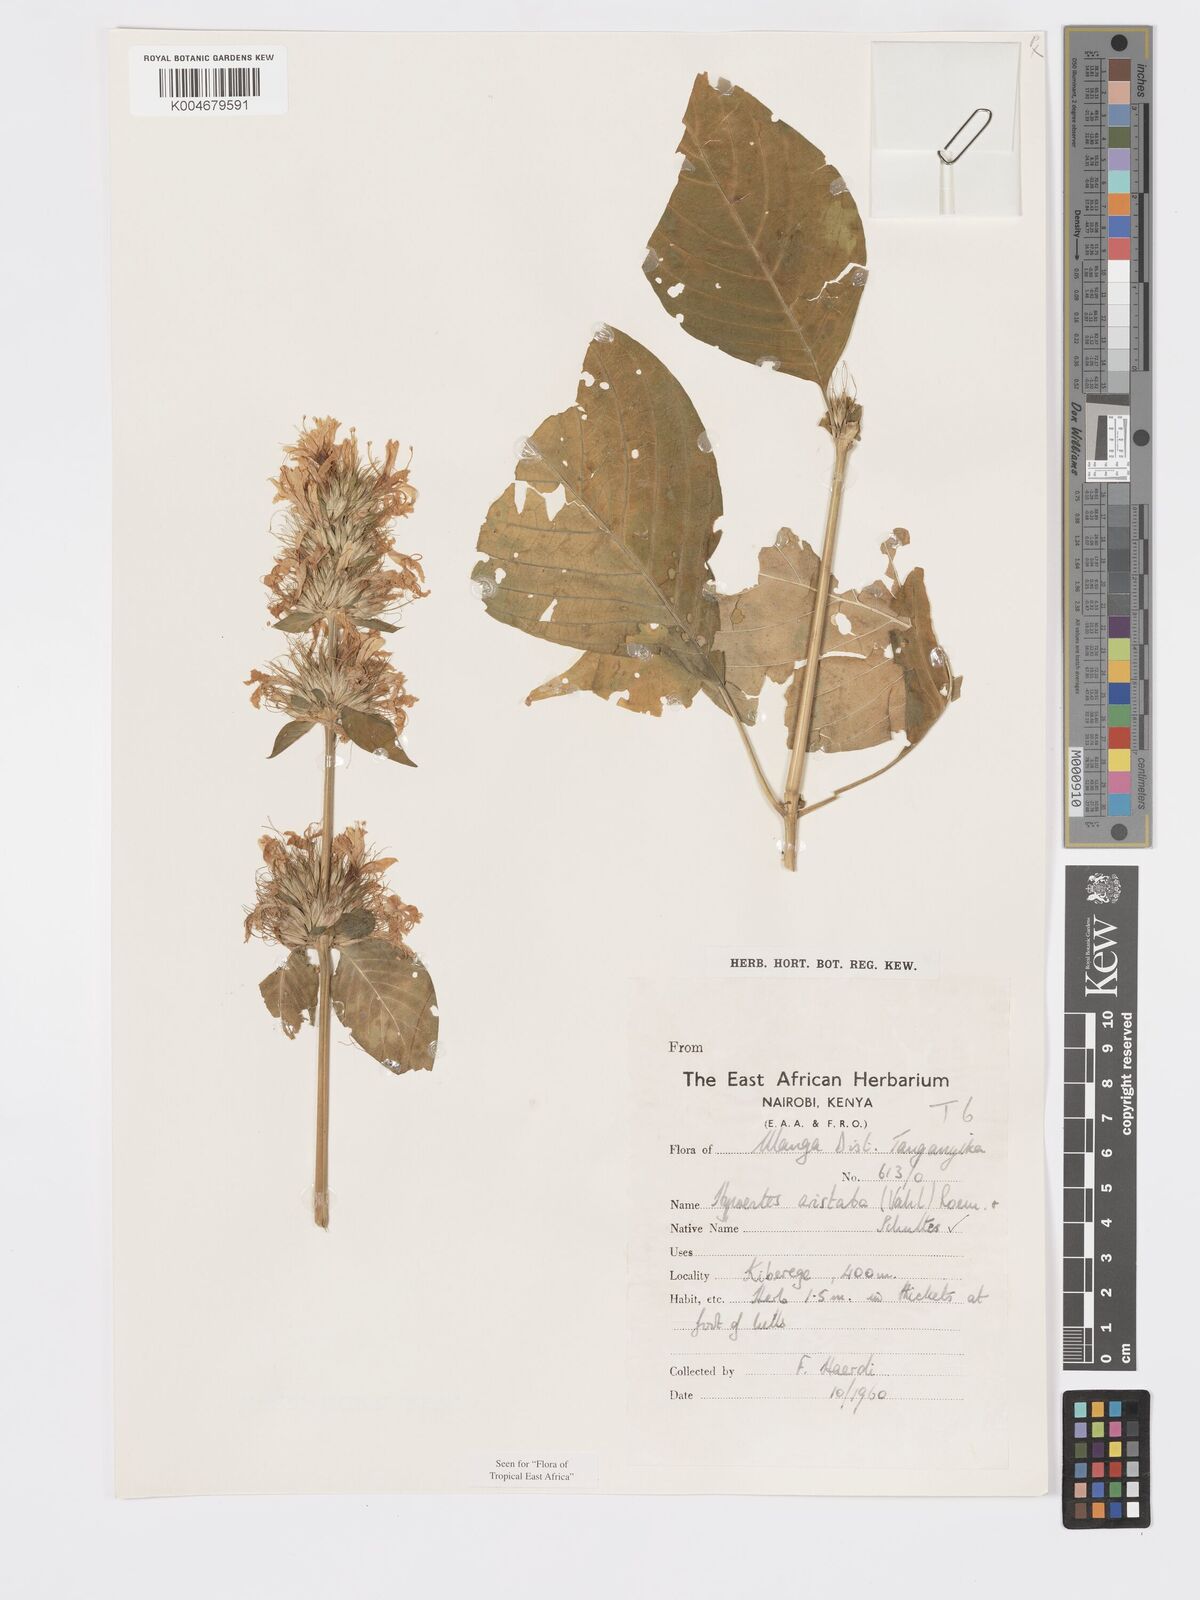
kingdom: Plantae
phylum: Tracheophyta
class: Magnoliopsida
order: Lamiales
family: Acanthaceae
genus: Hypoestes
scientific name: Hypoestes aristata
